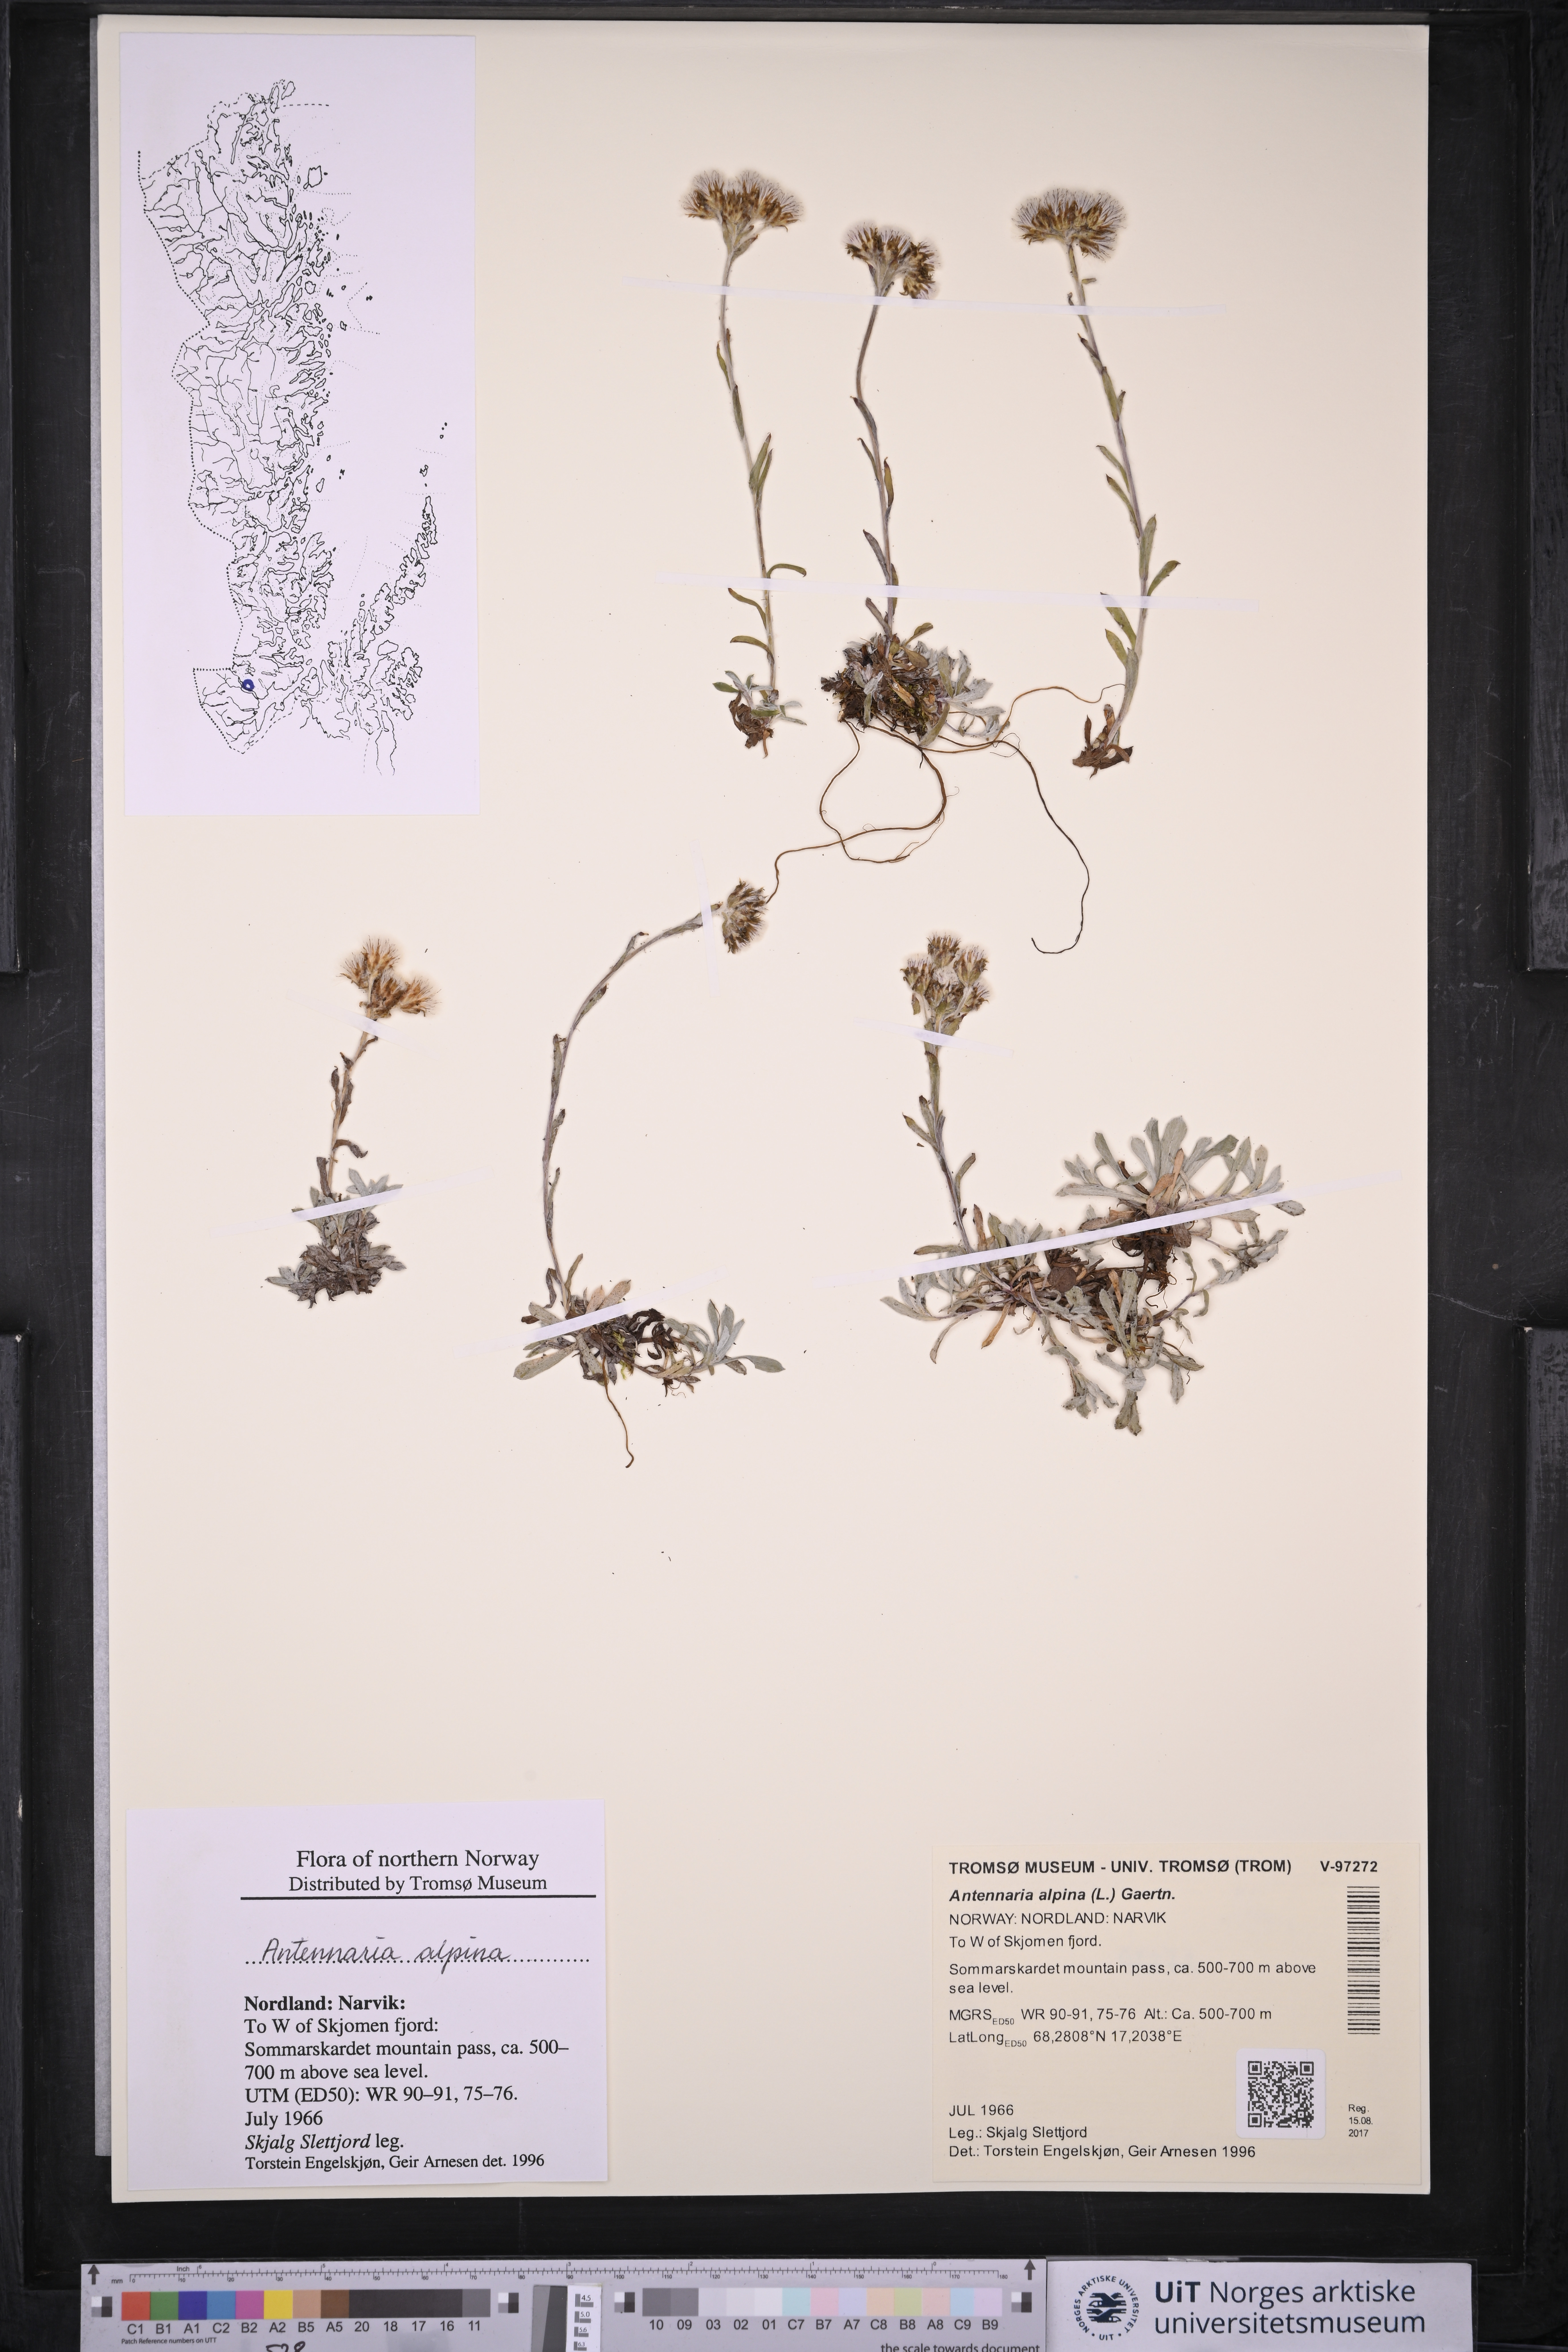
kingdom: Plantae
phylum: Tracheophyta
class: Magnoliopsida
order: Asterales
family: Asteraceae
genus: Antennaria
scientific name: Antennaria alpina
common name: Alpine pussytoes
